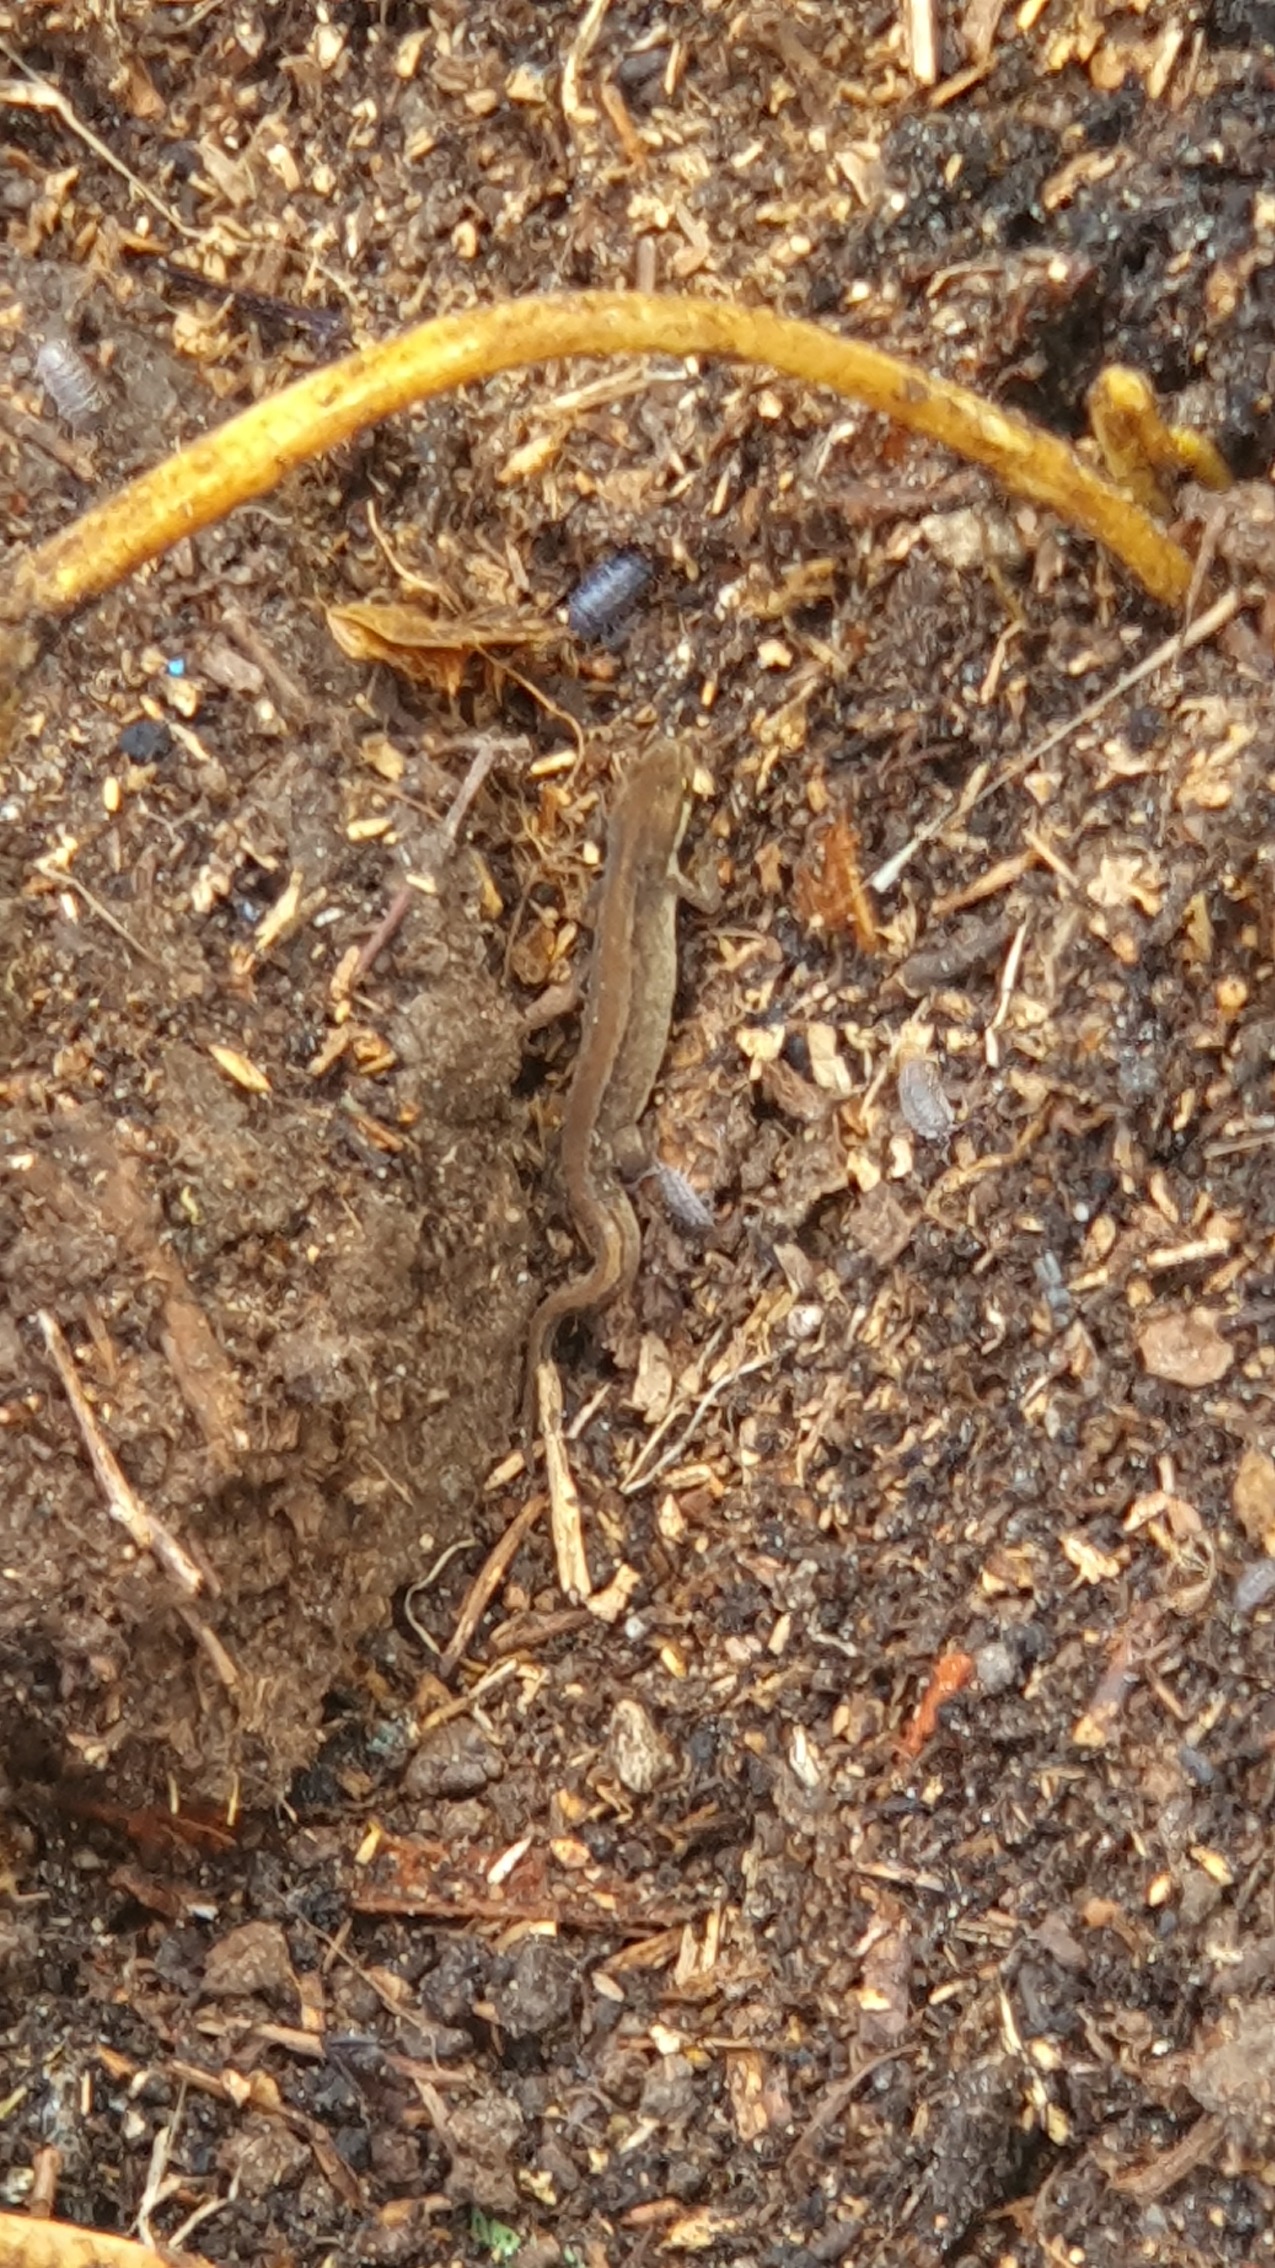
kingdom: Animalia
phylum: Chordata
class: Amphibia
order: Caudata
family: Salamandridae
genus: Lissotriton
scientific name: Lissotriton vulgaris
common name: Lille vandsalamander
